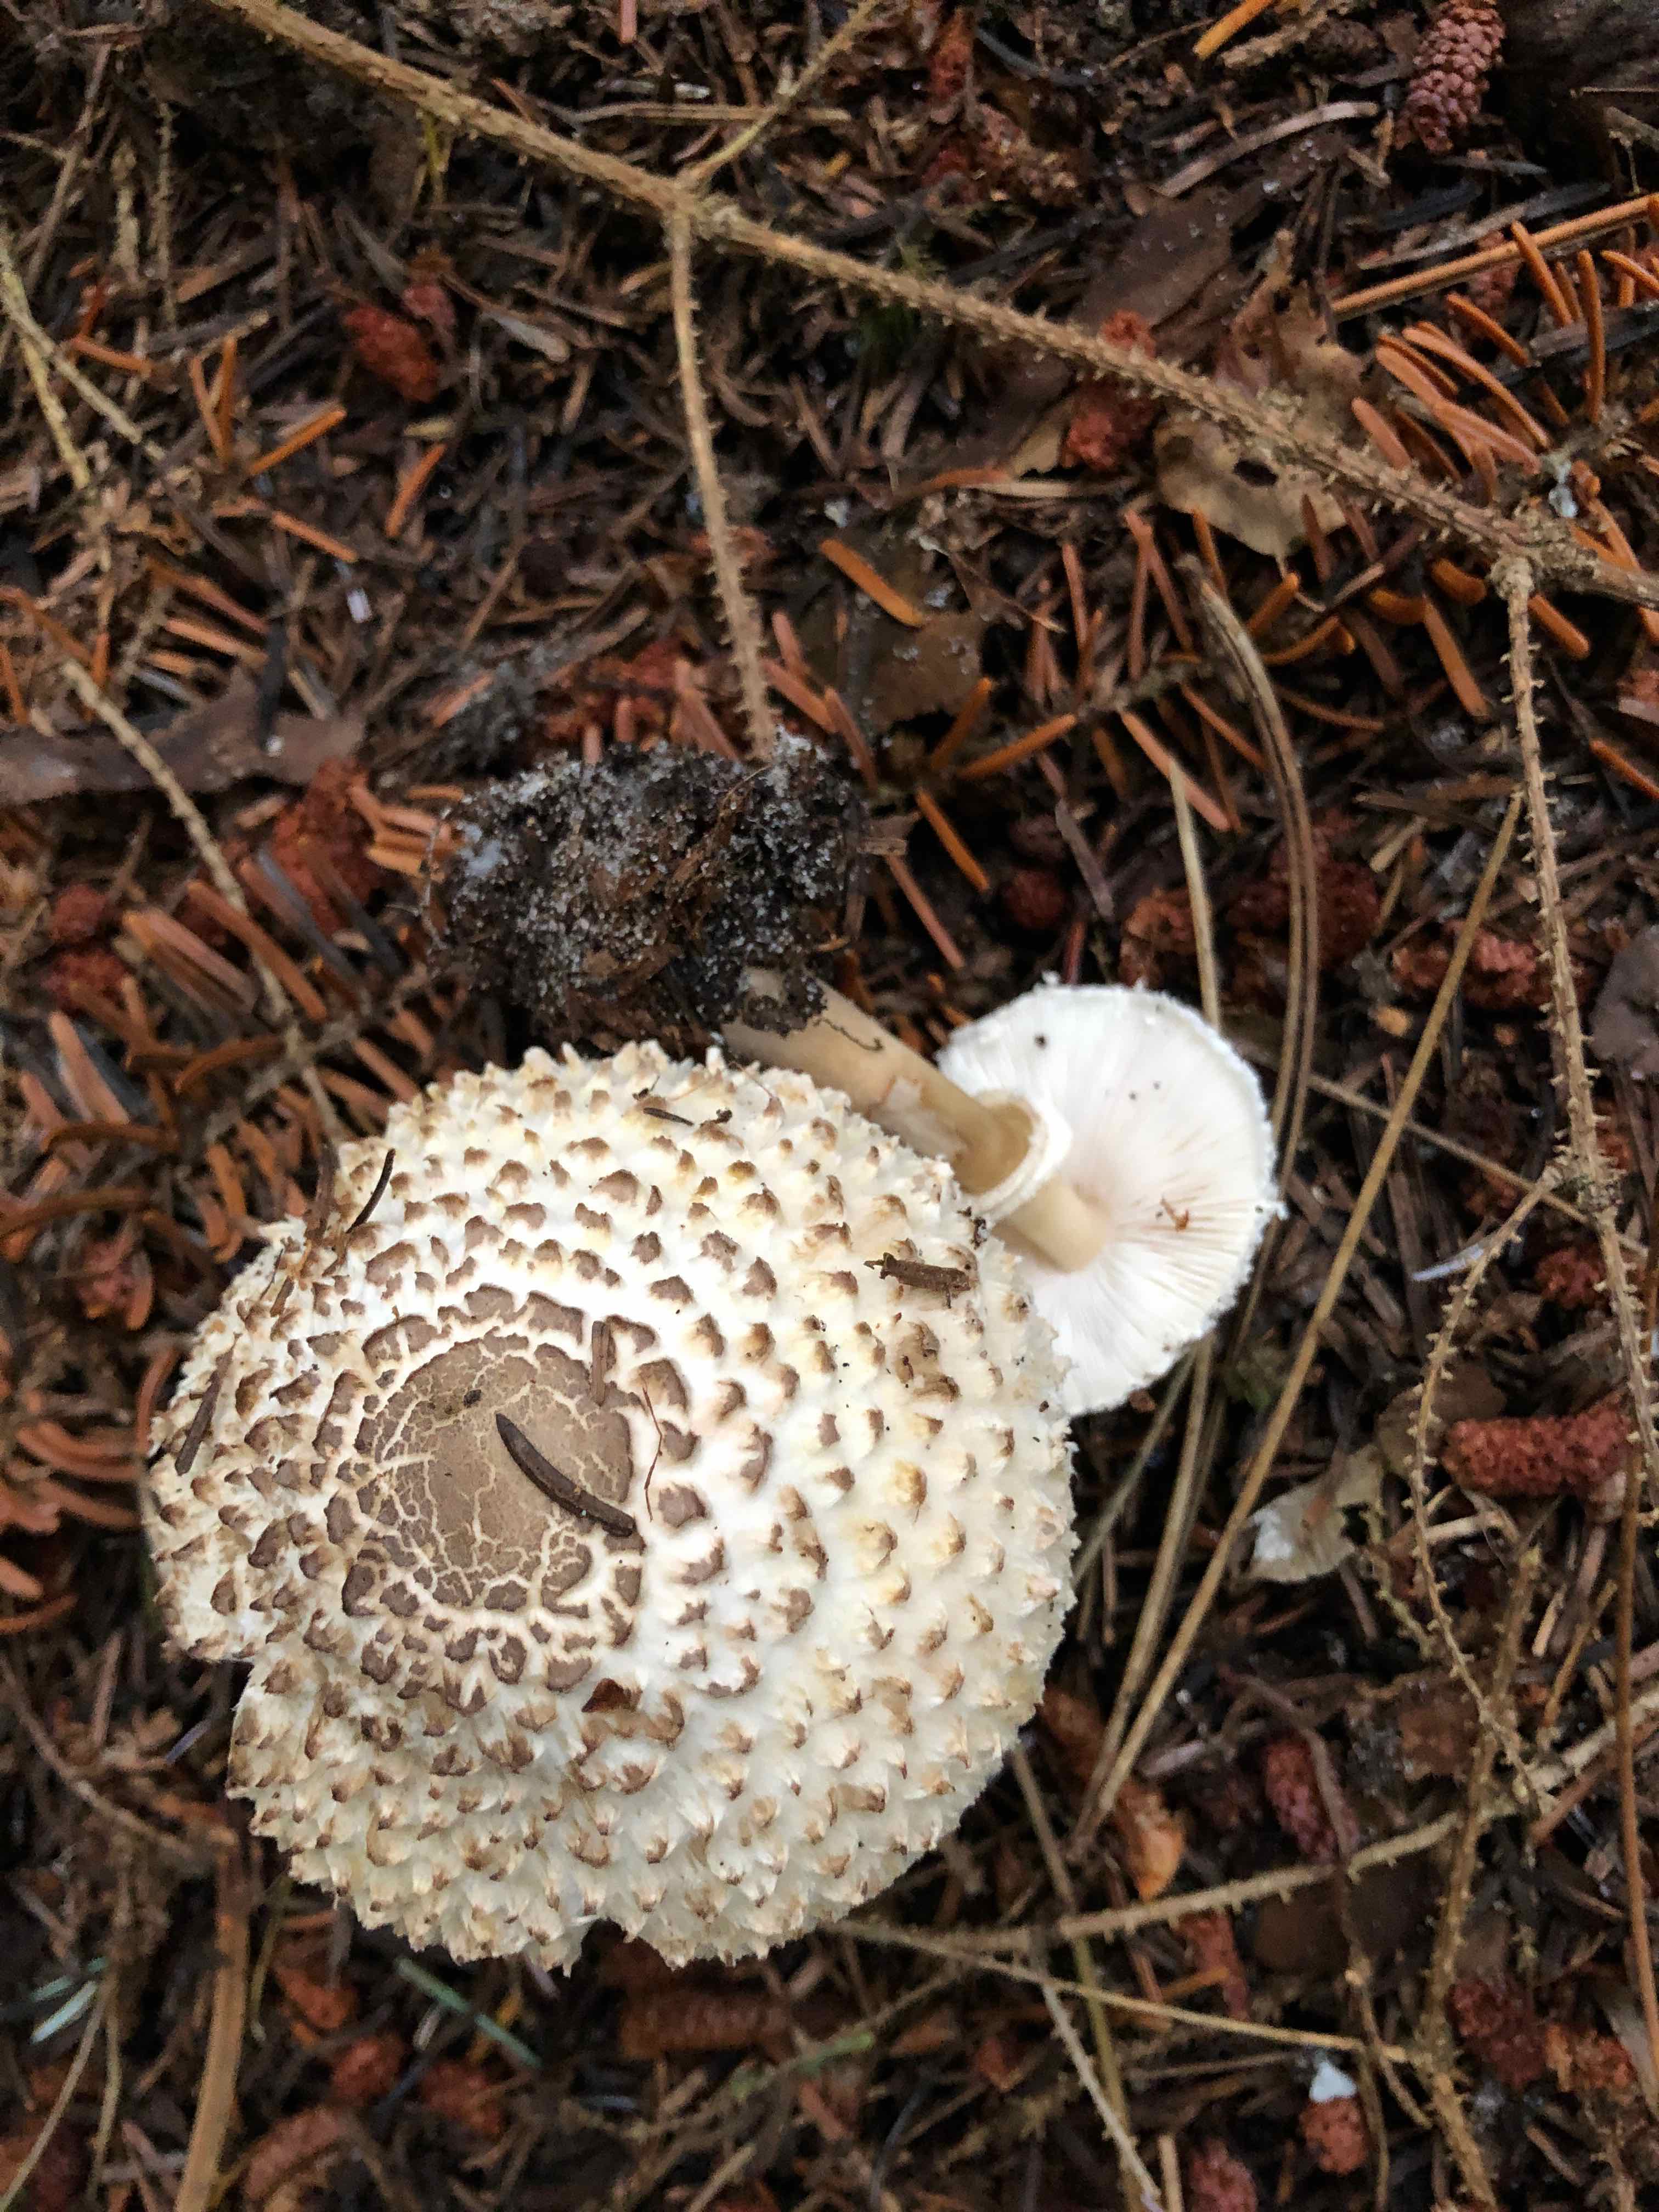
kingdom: Fungi
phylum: Basidiomycota
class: Agaricomycetes
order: Agaricales
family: Agaricaceae
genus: Leucoagaricus
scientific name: Leucoagaricus nympharum
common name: gran-silkehat
